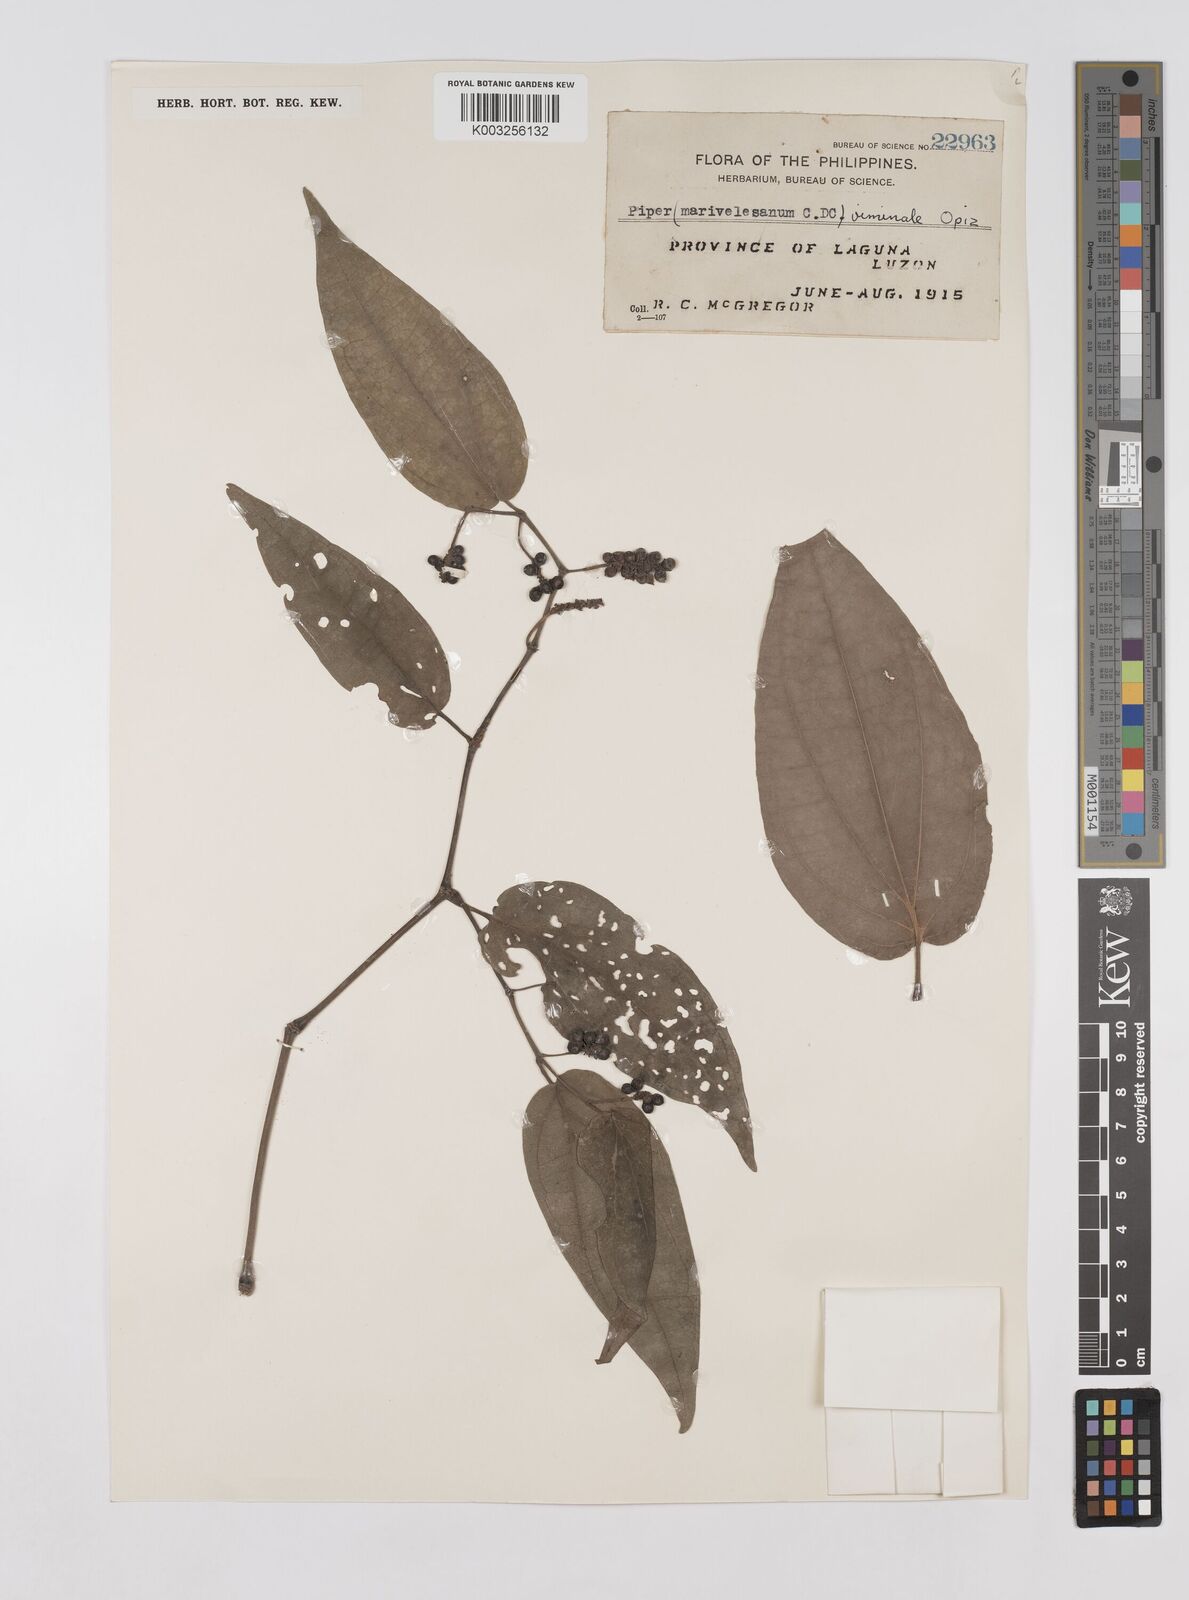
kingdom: Plantae
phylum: Tracheophyta
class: Magnoliopsida
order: Piperales
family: Piperaceae
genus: Piper
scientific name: Piper lanatum
